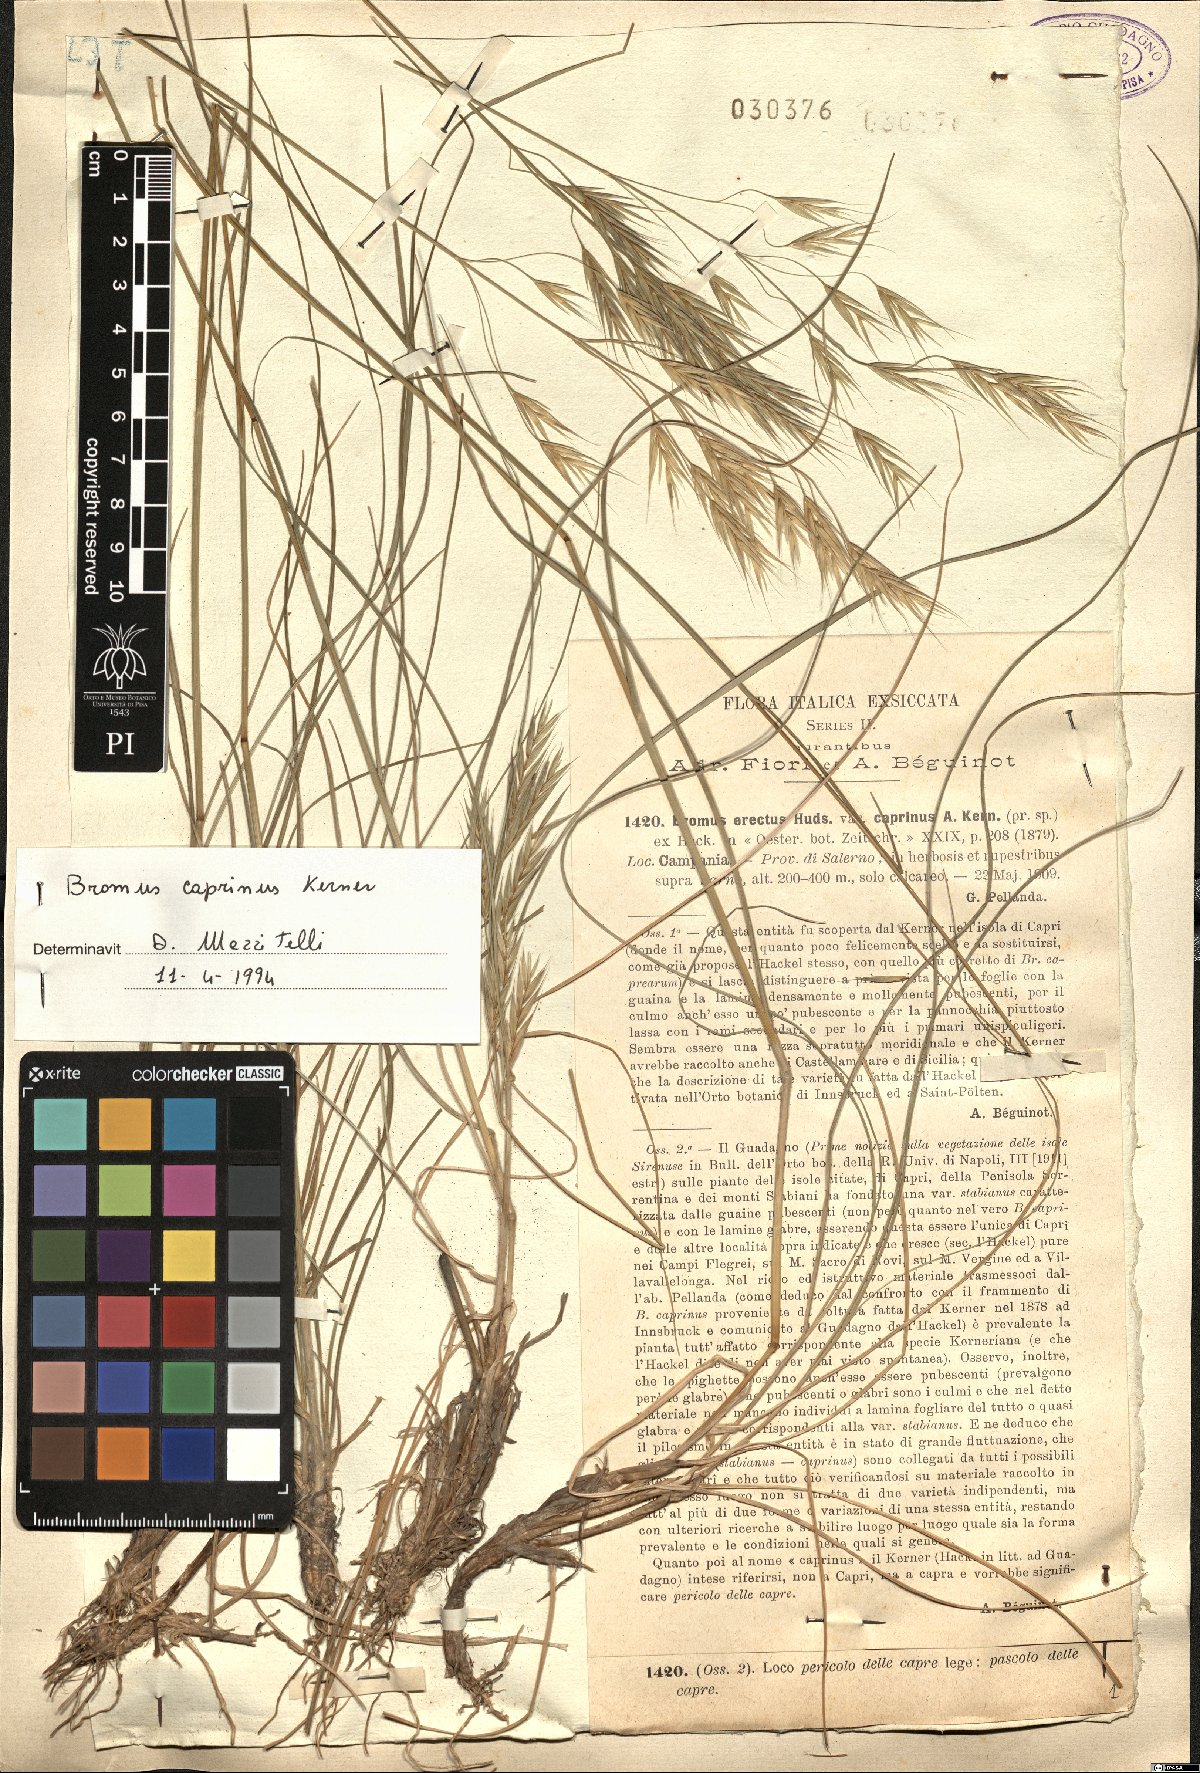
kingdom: Plantae
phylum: Tracheophyta
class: Liliopsida
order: Poales
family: Poaceae
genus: Bromus
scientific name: Bromus erectus
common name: Erect brome
